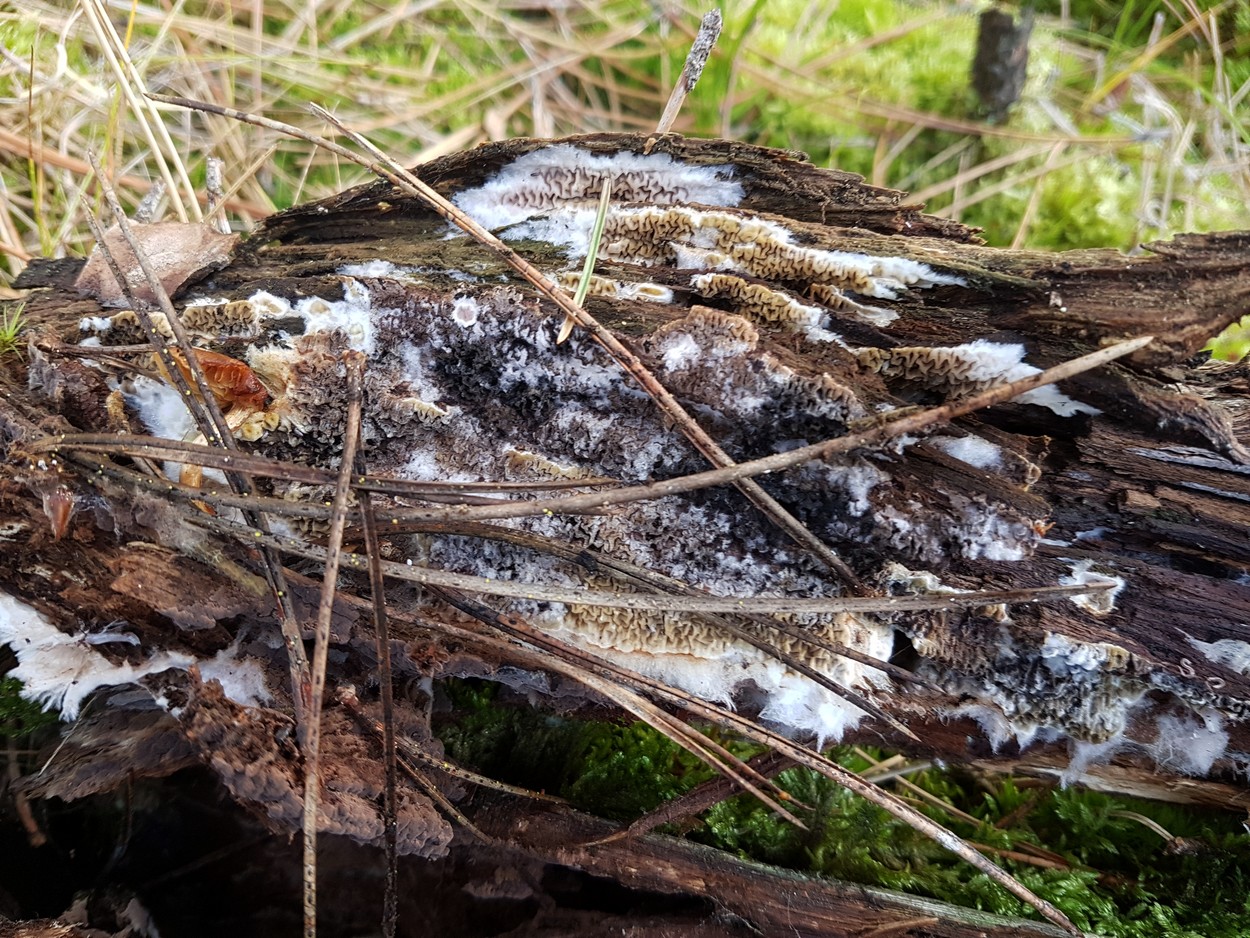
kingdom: Fungi
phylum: Basidiomycota
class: Agaricomycetes
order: Boletales
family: Serpulaceae
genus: Serpula
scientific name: Serpula himantioides
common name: tyndkødet hussvamp
